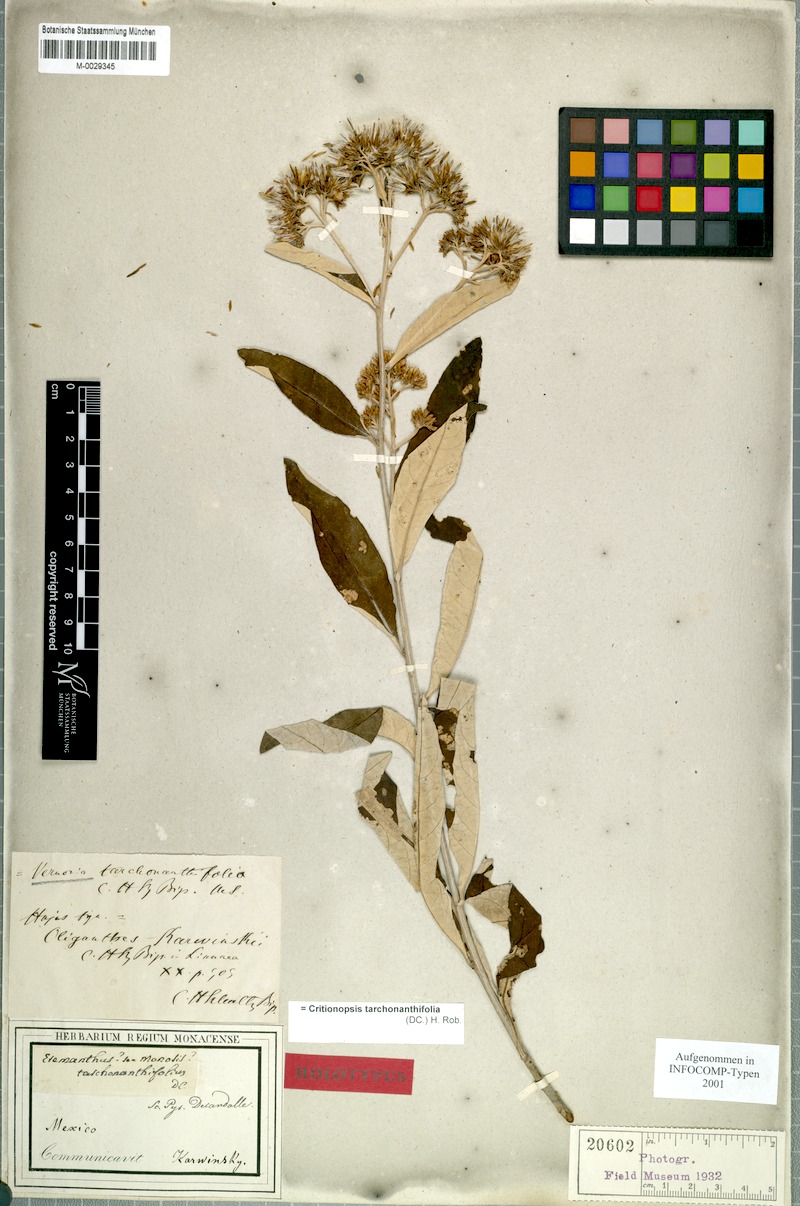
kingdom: Plantae
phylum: Tracheophyta
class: Magnoliopsida
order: Asterales
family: Asteraceae
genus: Eremosis
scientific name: Eremosis tarchonanthifolia
